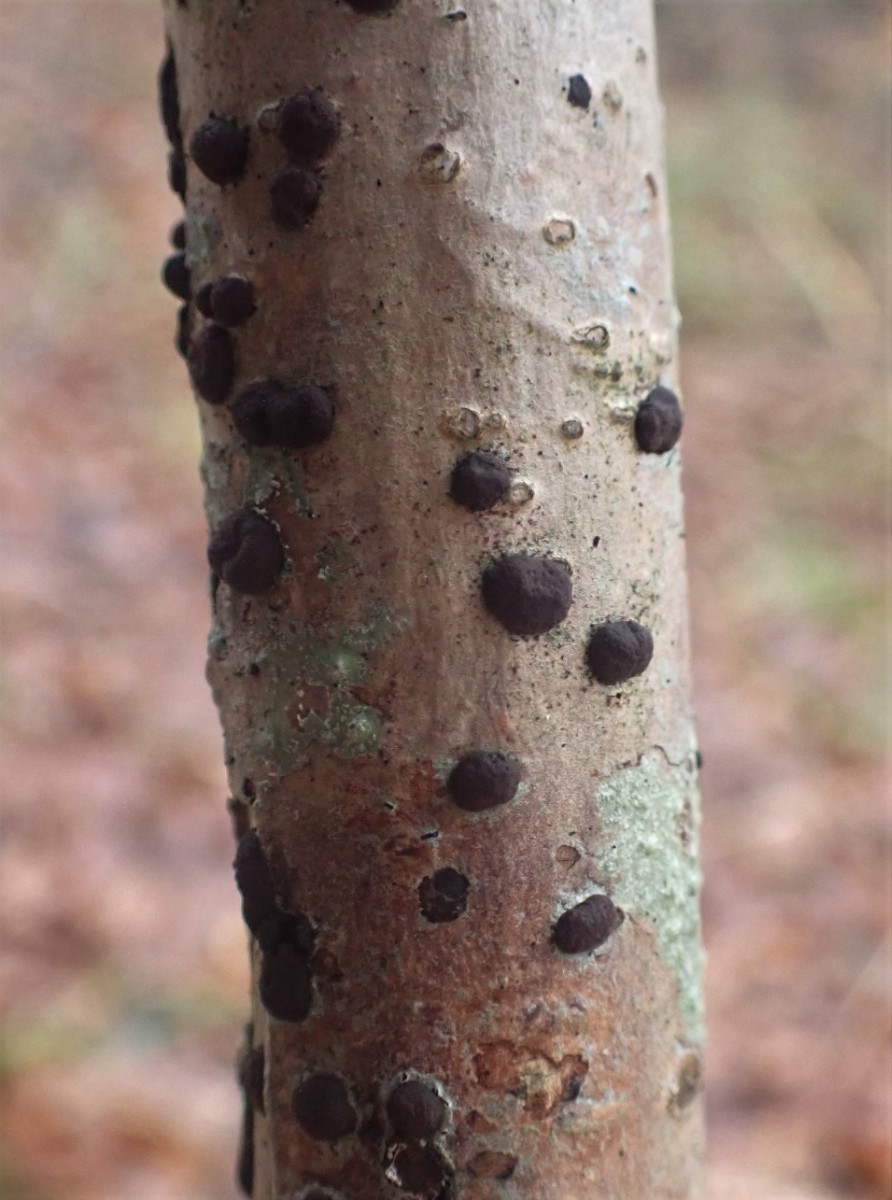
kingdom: Fungi
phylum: Ascomycota
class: Sordariomycetes
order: Xylariales
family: Hypoxylaceae
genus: Hypoxylon
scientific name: Hypoxylon fuscum
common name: kegleformet kulbær
